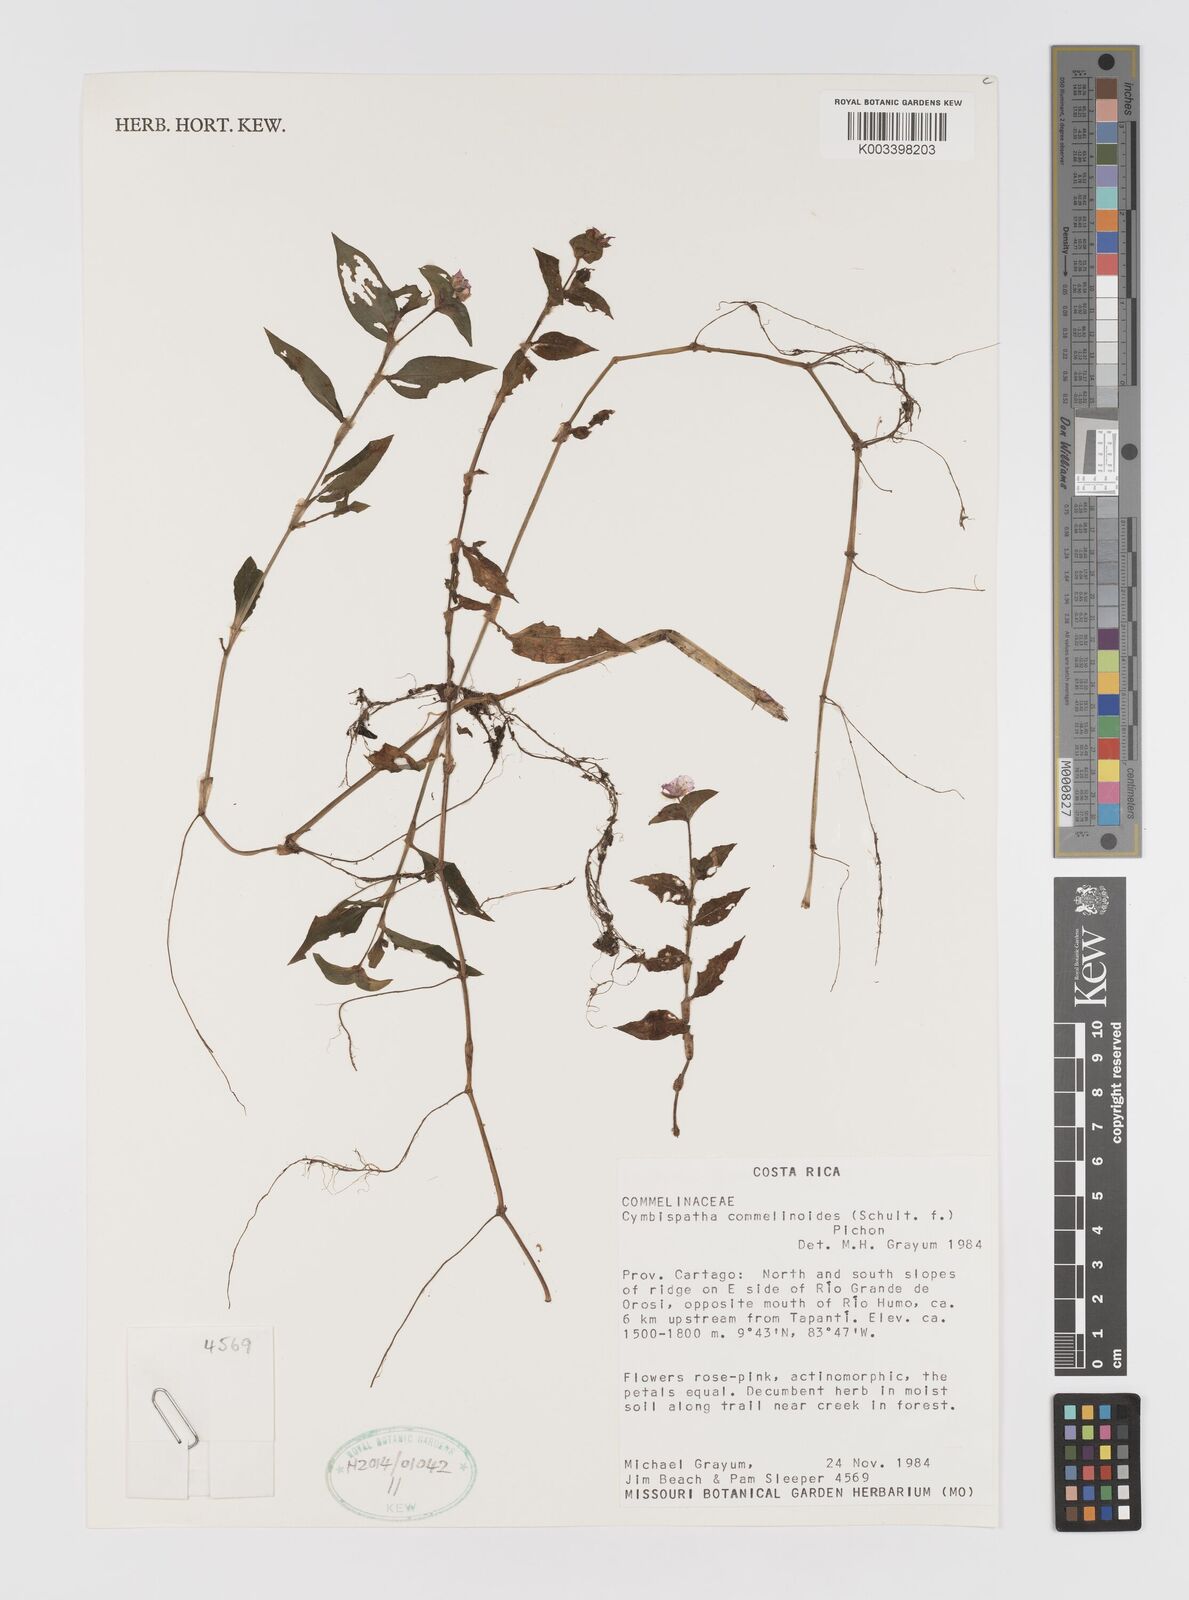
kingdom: Plantae
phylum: Tracheophyta
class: Liliopsida
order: Commelinales
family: Commelinaceae
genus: Tradescantia
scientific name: Tradescantia commelinoides
